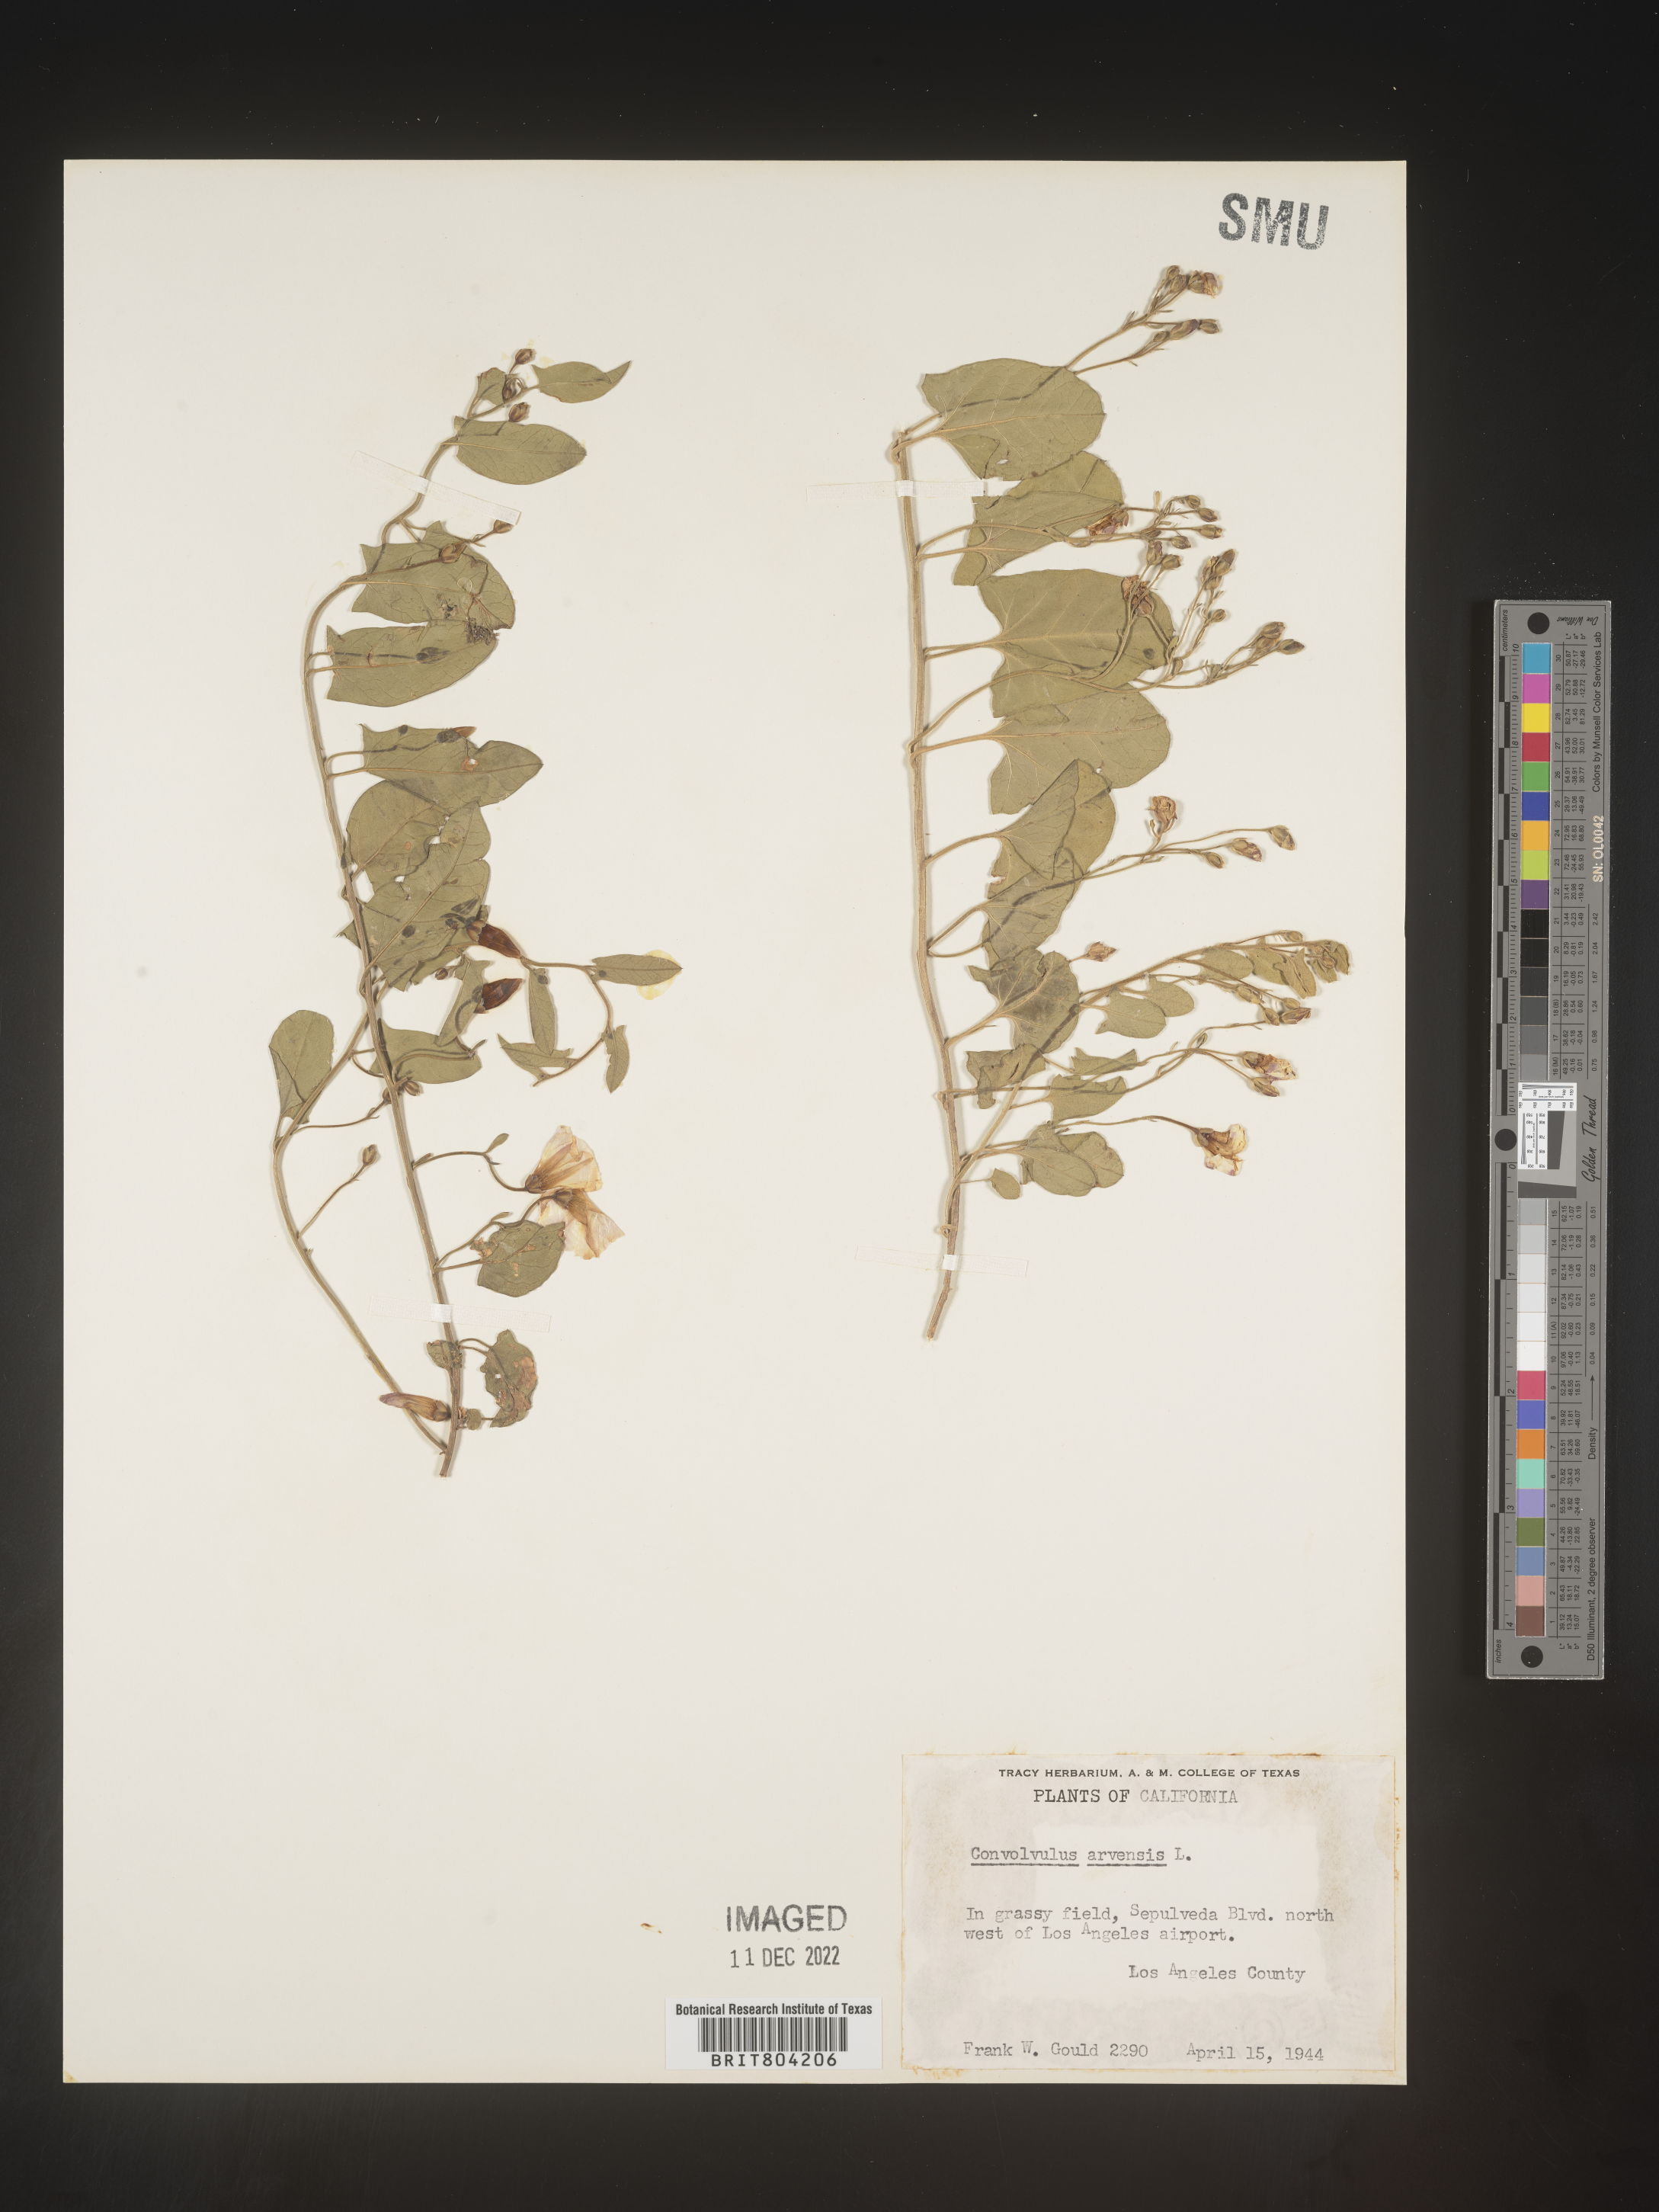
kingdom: Plantae
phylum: Tracheophyta
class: Magnoliopsida
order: Solanales
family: Convolvulaceae
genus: Convolvulus
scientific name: Convolvulus arvensis
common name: Field bindweed
